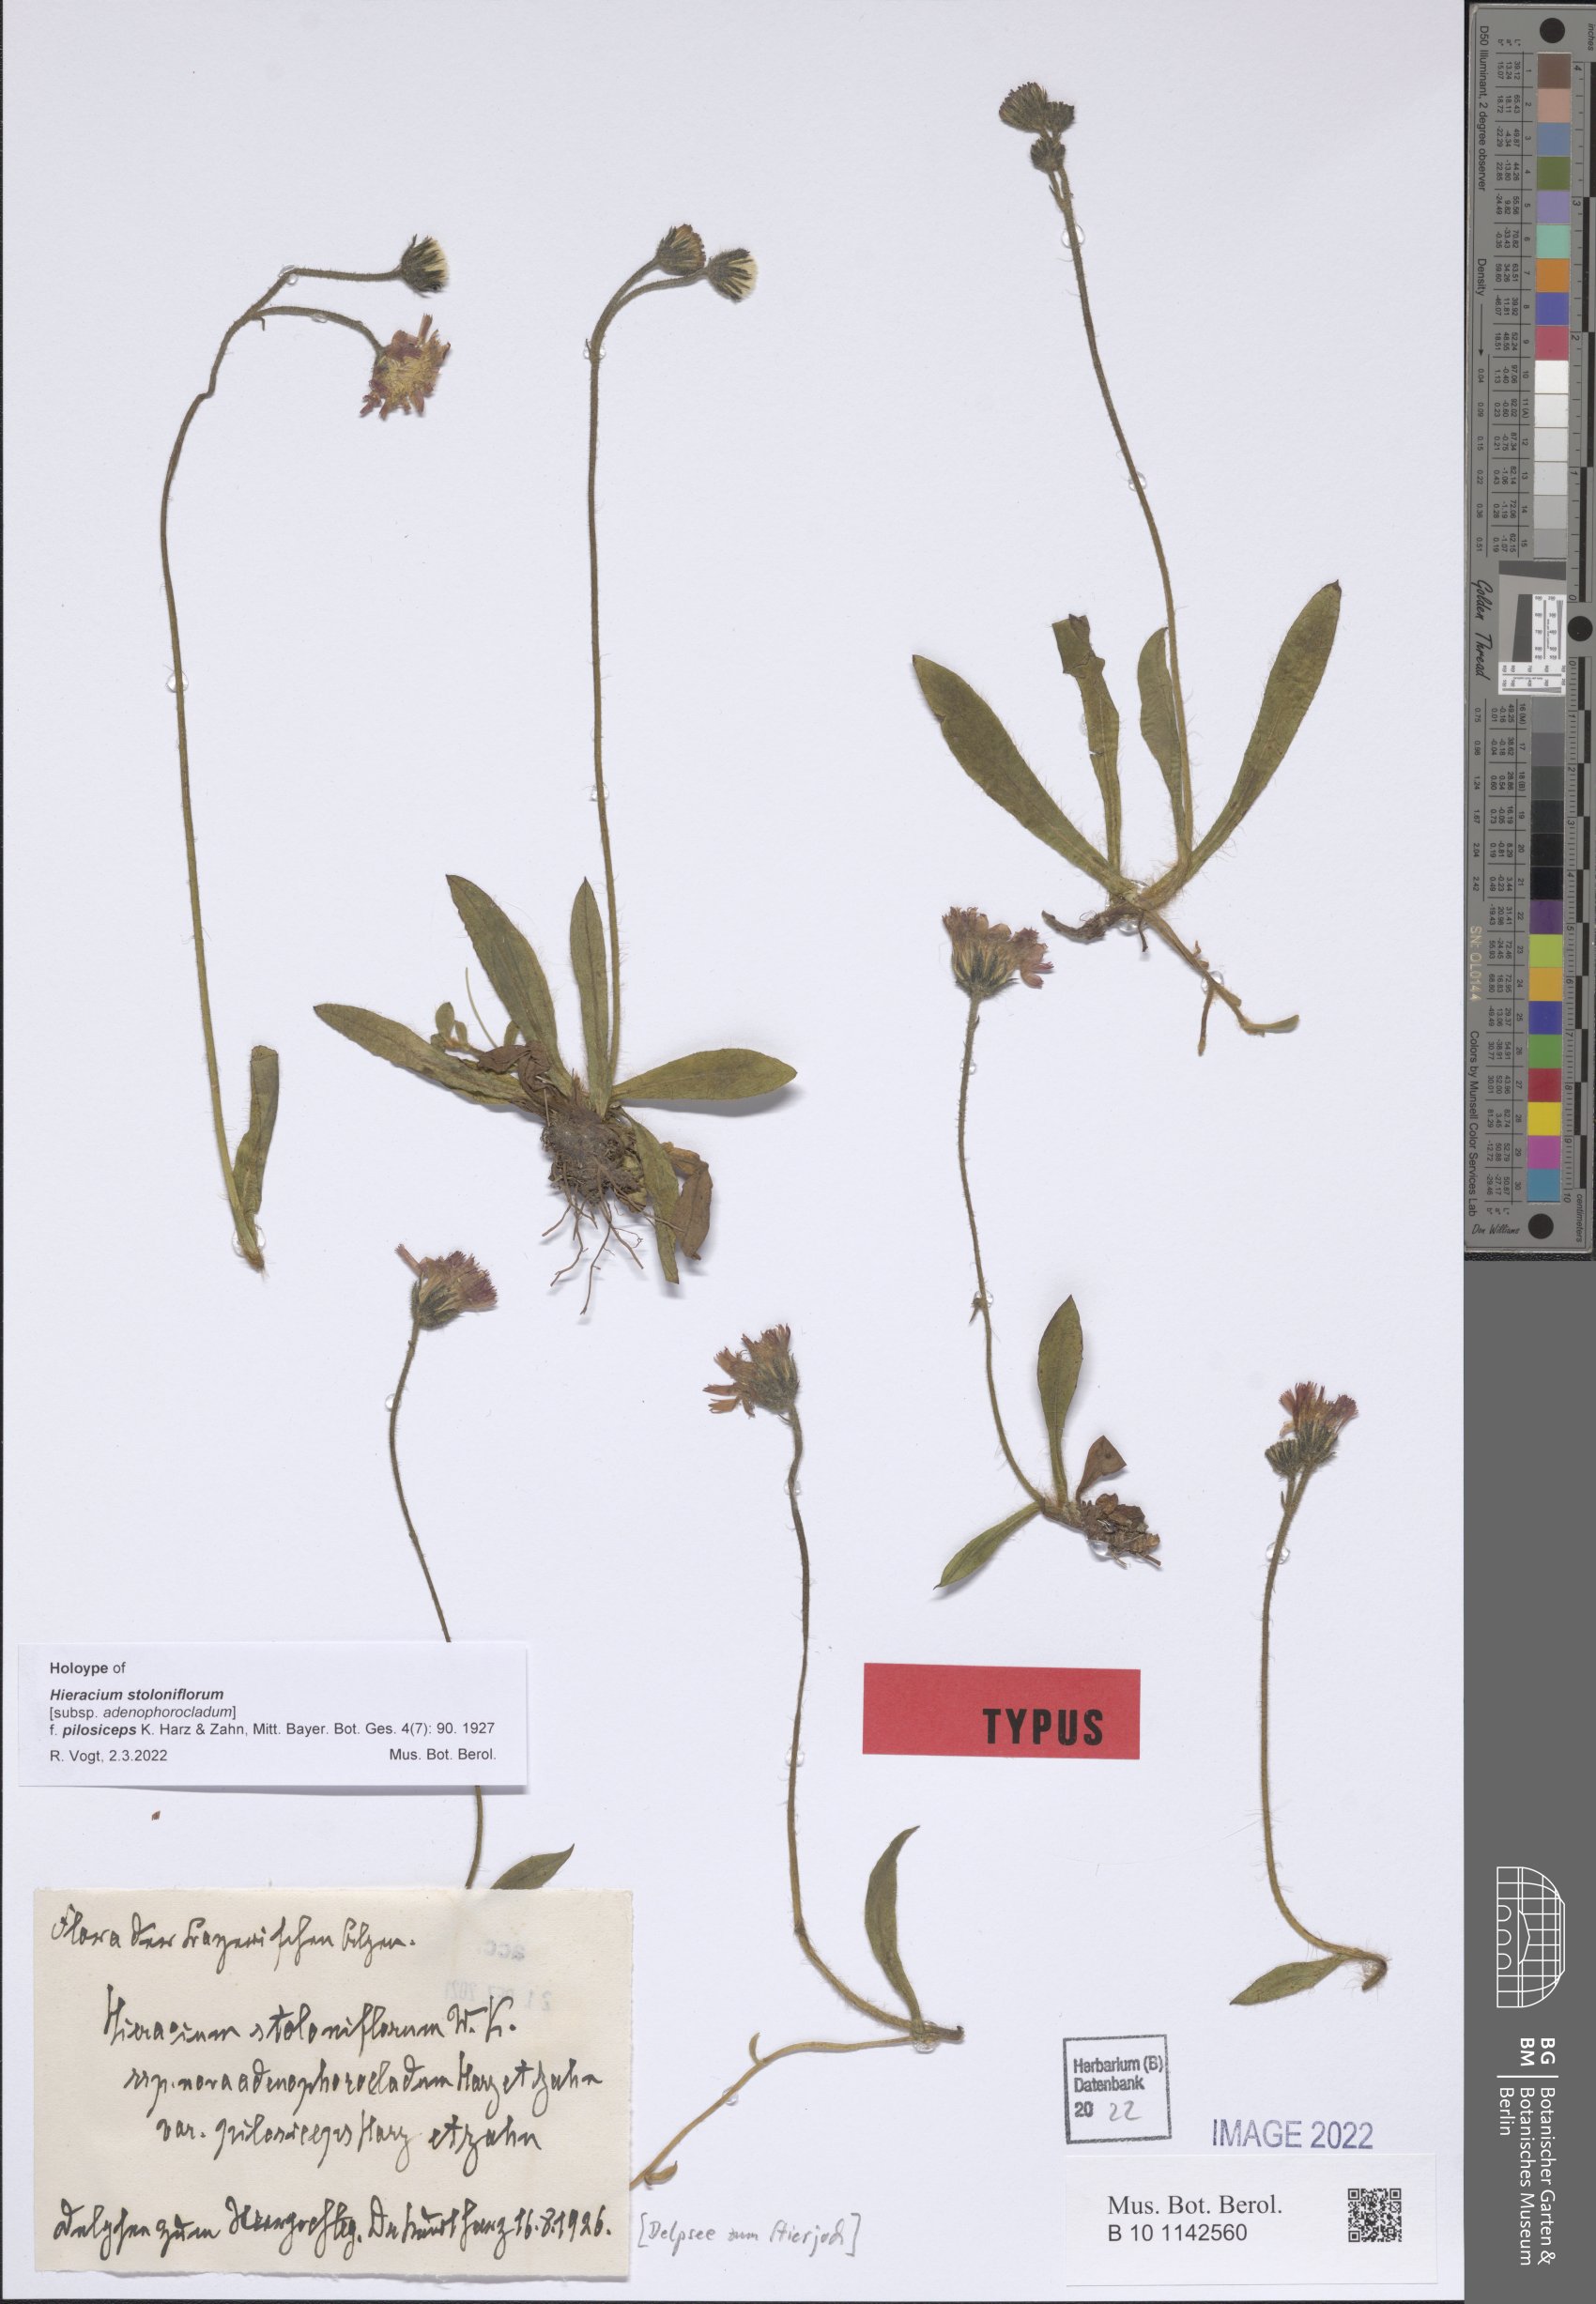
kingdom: Plantae
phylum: Tracheophyta
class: Magnoliopsida
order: Asterales
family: Asteraceae
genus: Pilosella
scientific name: Pilosella stoloniflora
